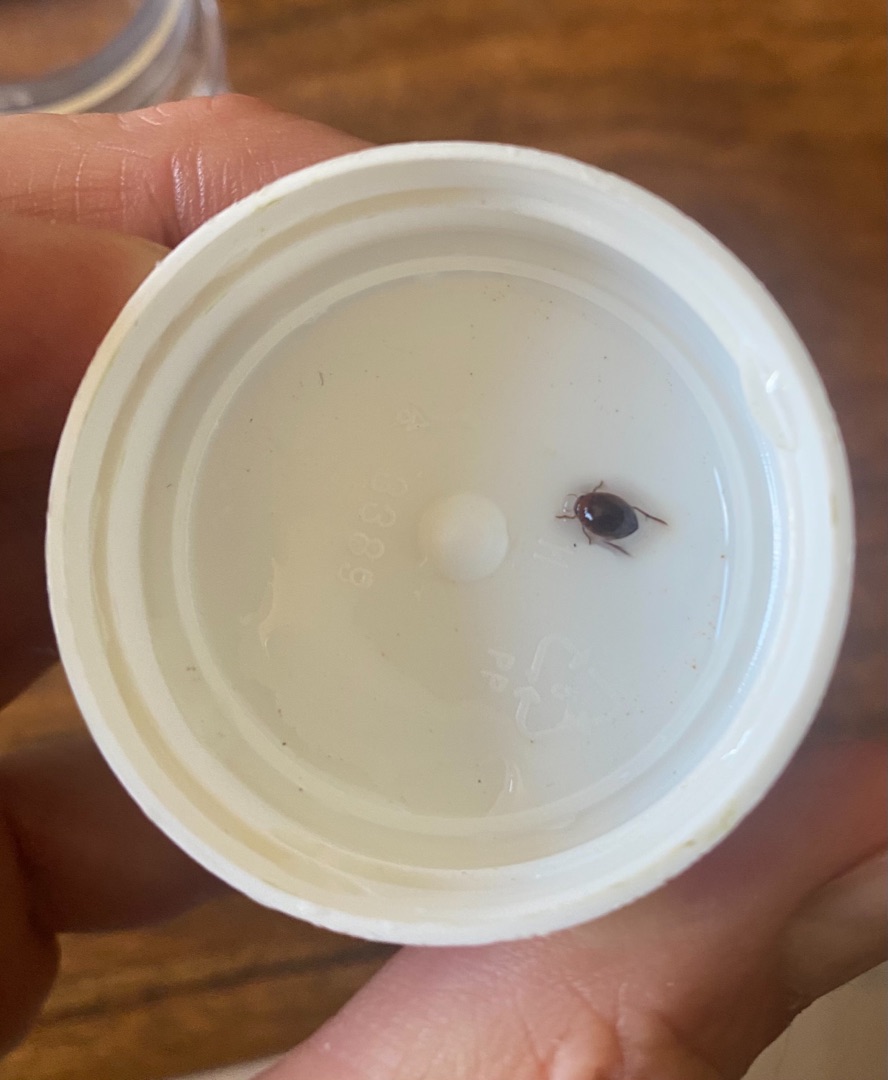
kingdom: Animalia
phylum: Arthropoda
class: Insecta
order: Coleoptera
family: Dytiscidae
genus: Hyphydrus
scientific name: Hyphydrus ovatus
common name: Rød kuglevandkalv
